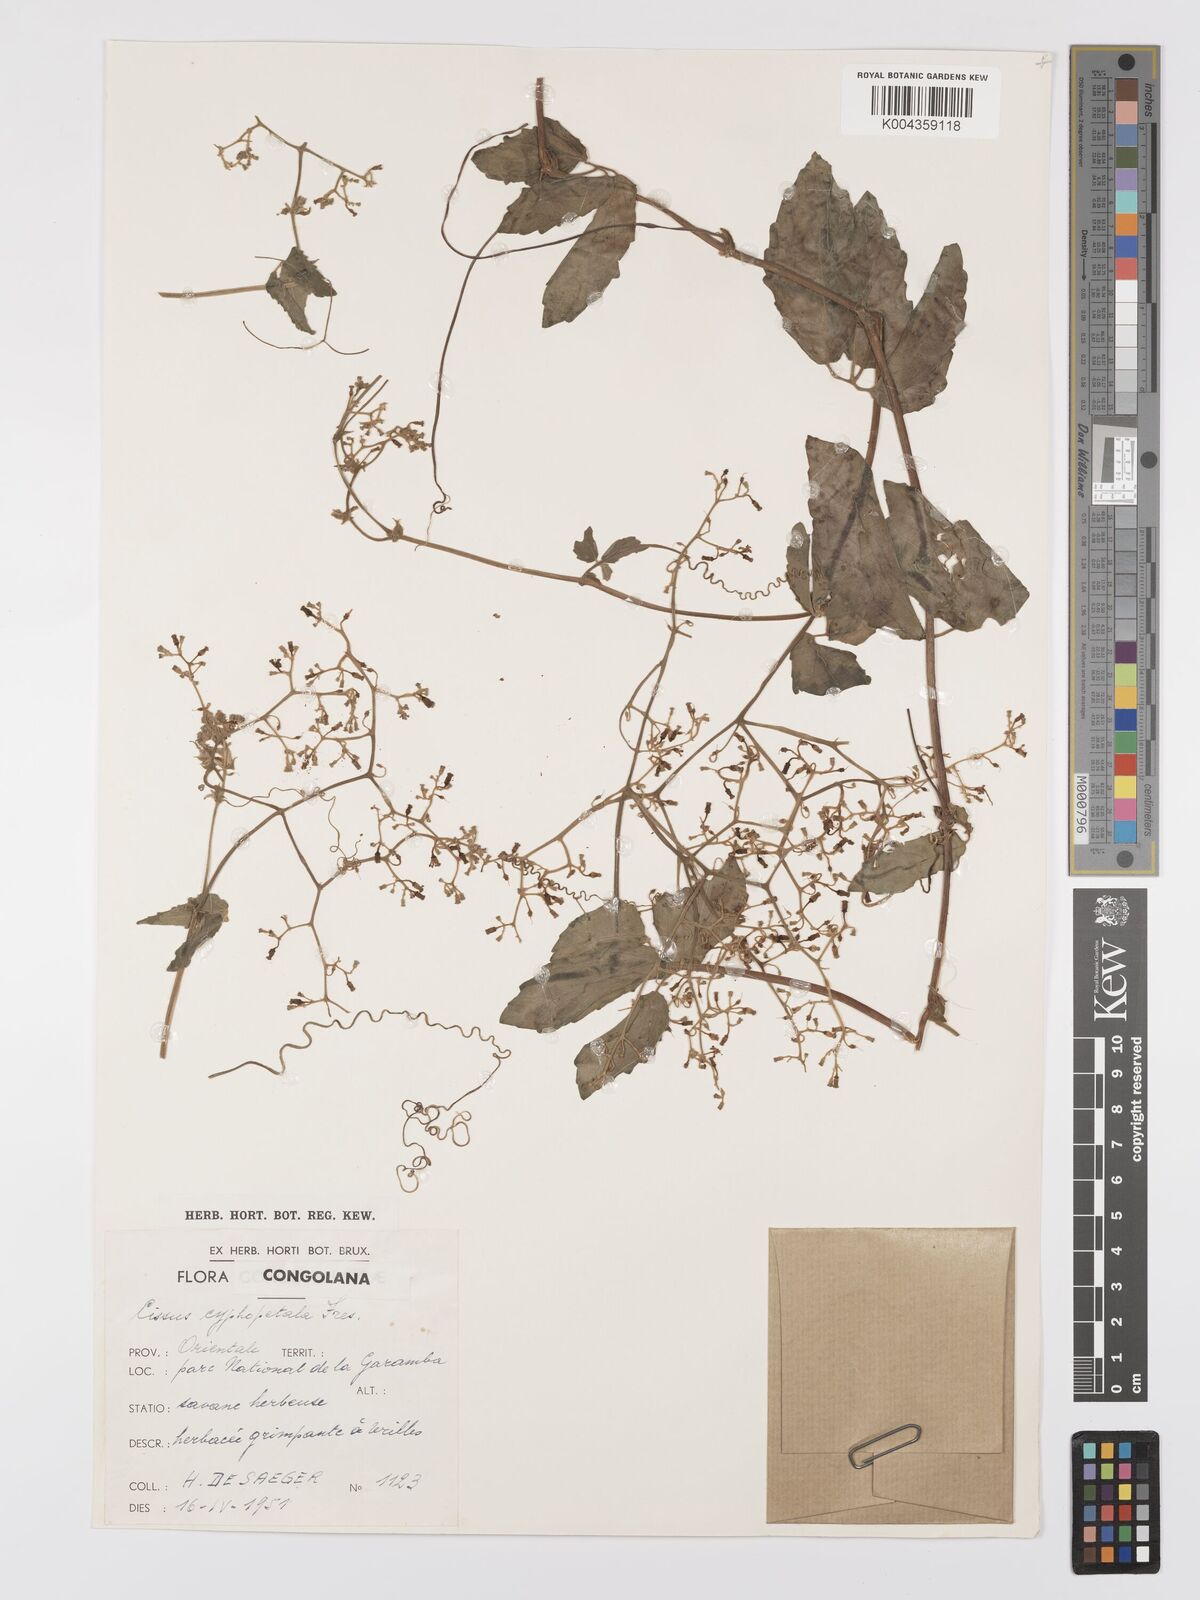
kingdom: Plantae
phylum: Tracheophyta
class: Magnoliopsida
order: Vitales
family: Vitaceae
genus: Cyphostemma
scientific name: Cyphostemma cyphopetalum
